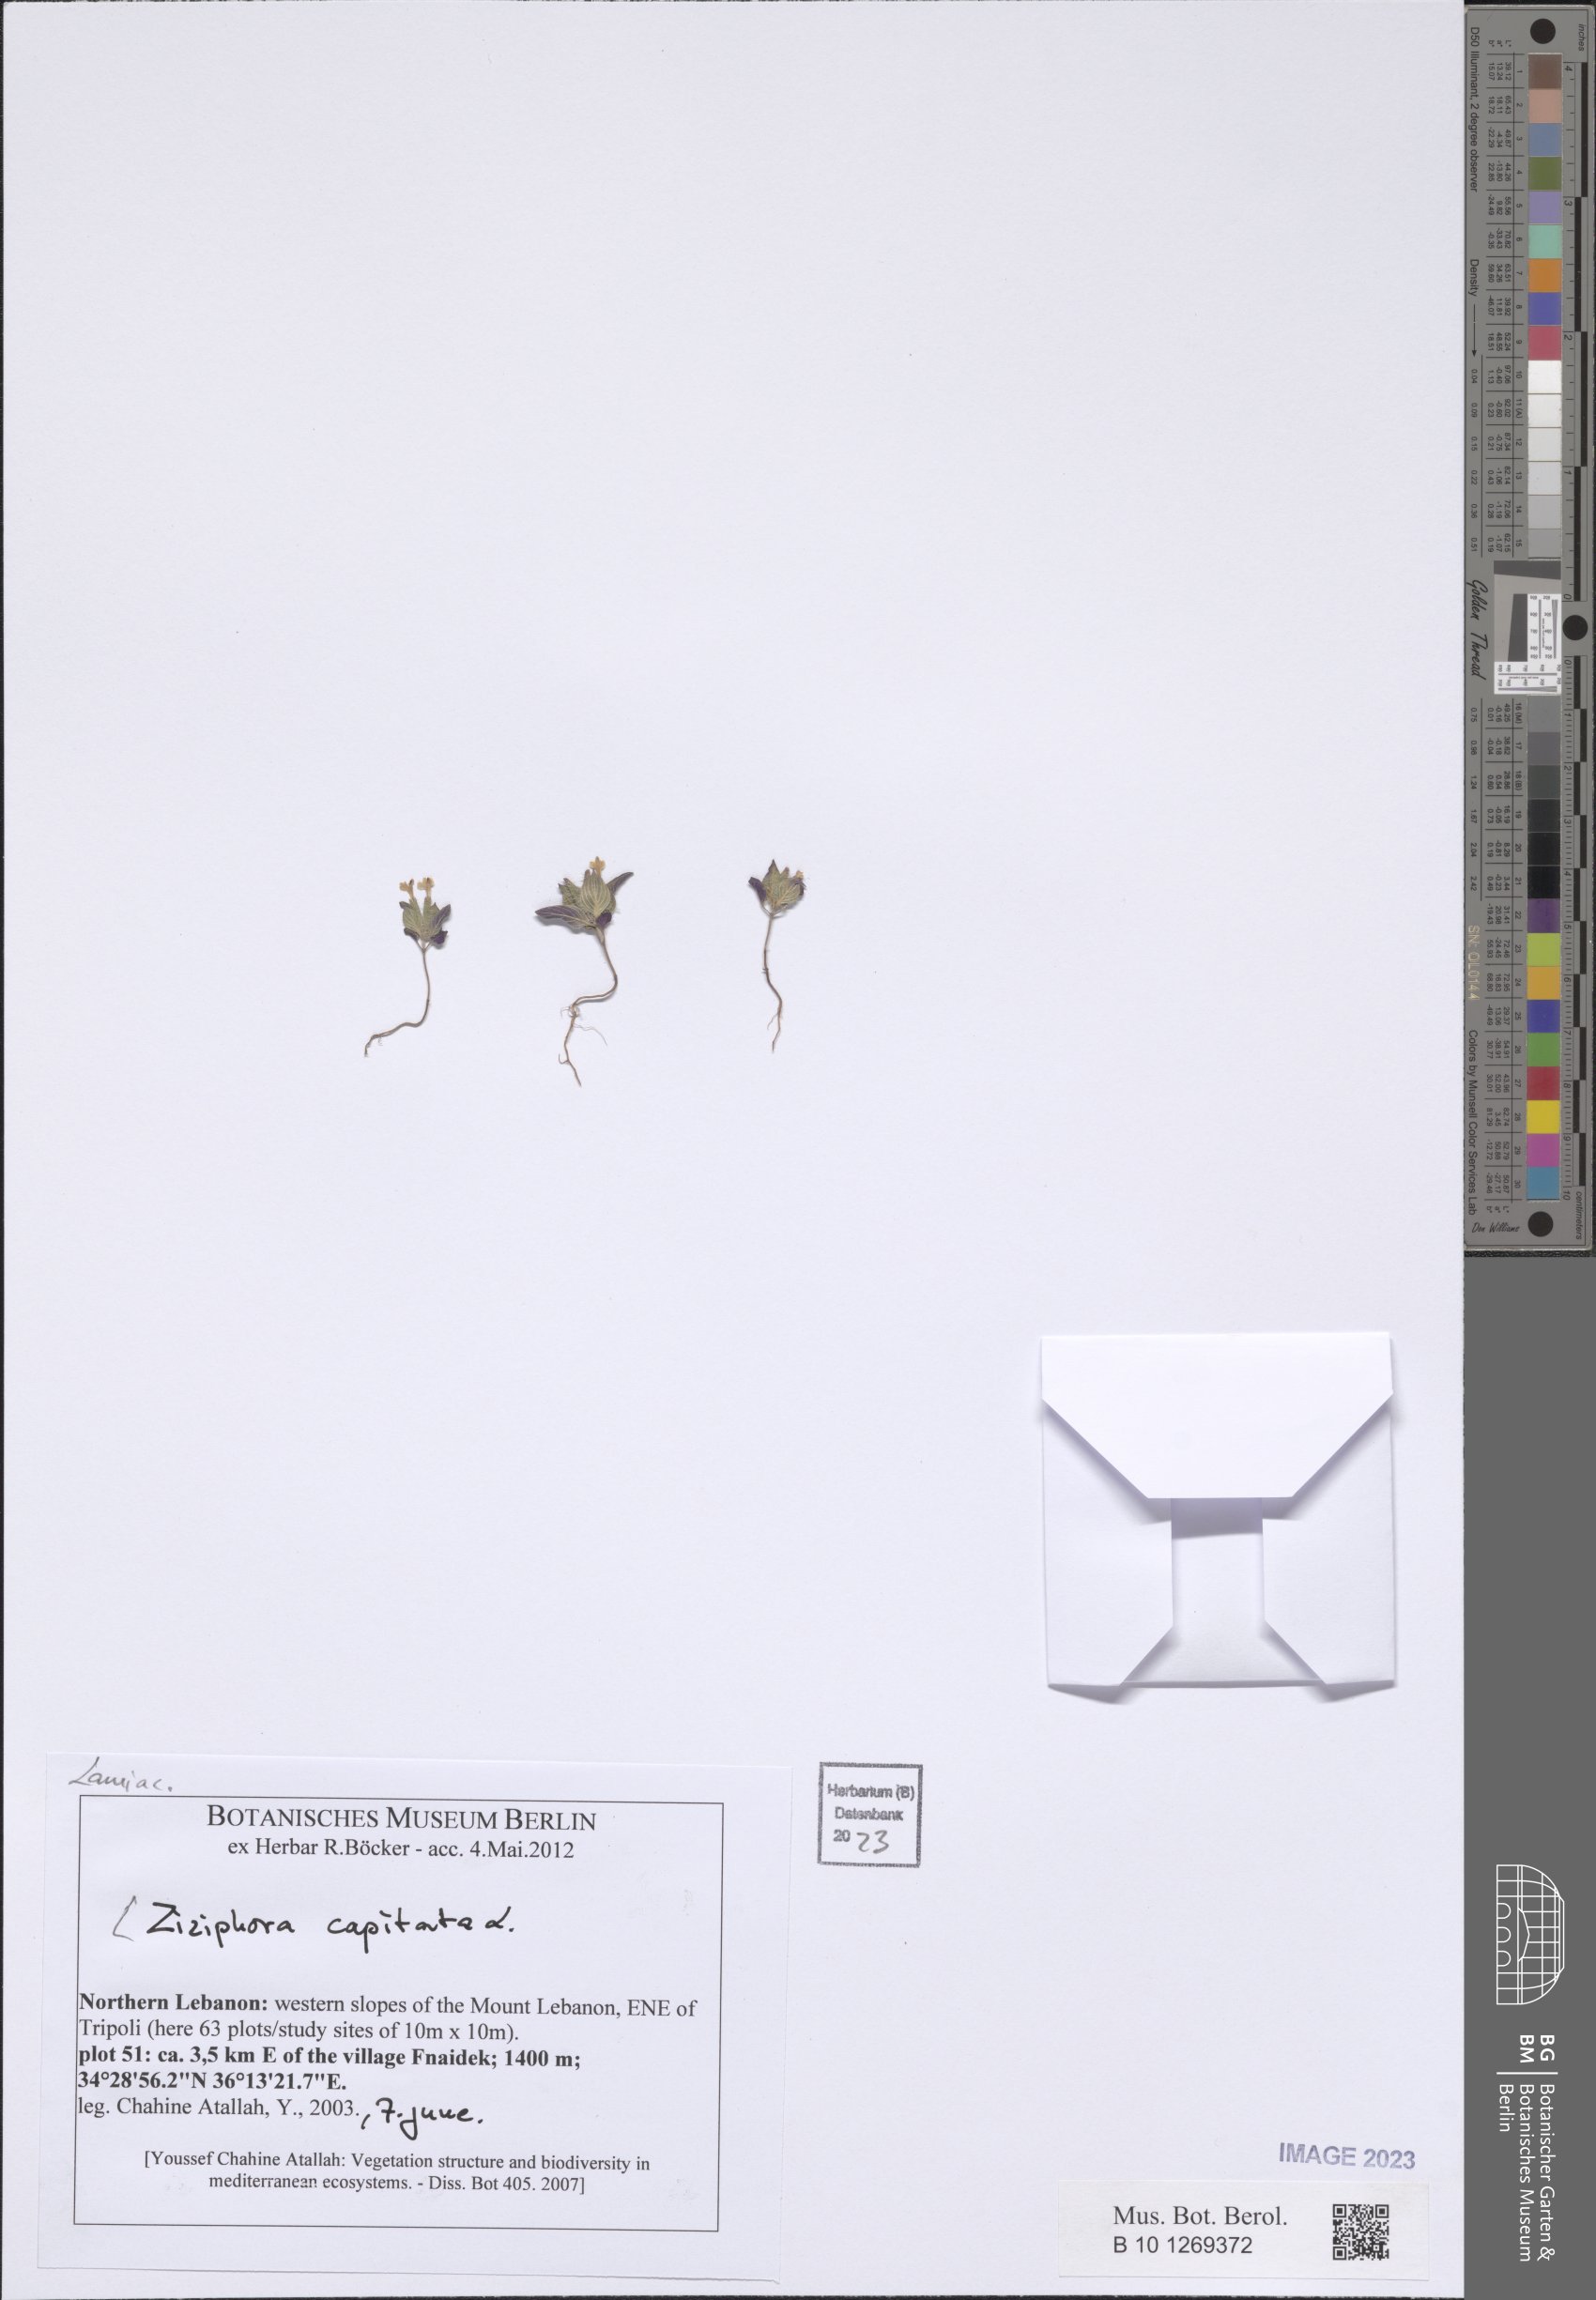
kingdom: Plantae
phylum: Tracheophyta
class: Magnoliopsida
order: Lamiales
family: Lamiaceae
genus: Ziziphora
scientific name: Ziziphora capitata
